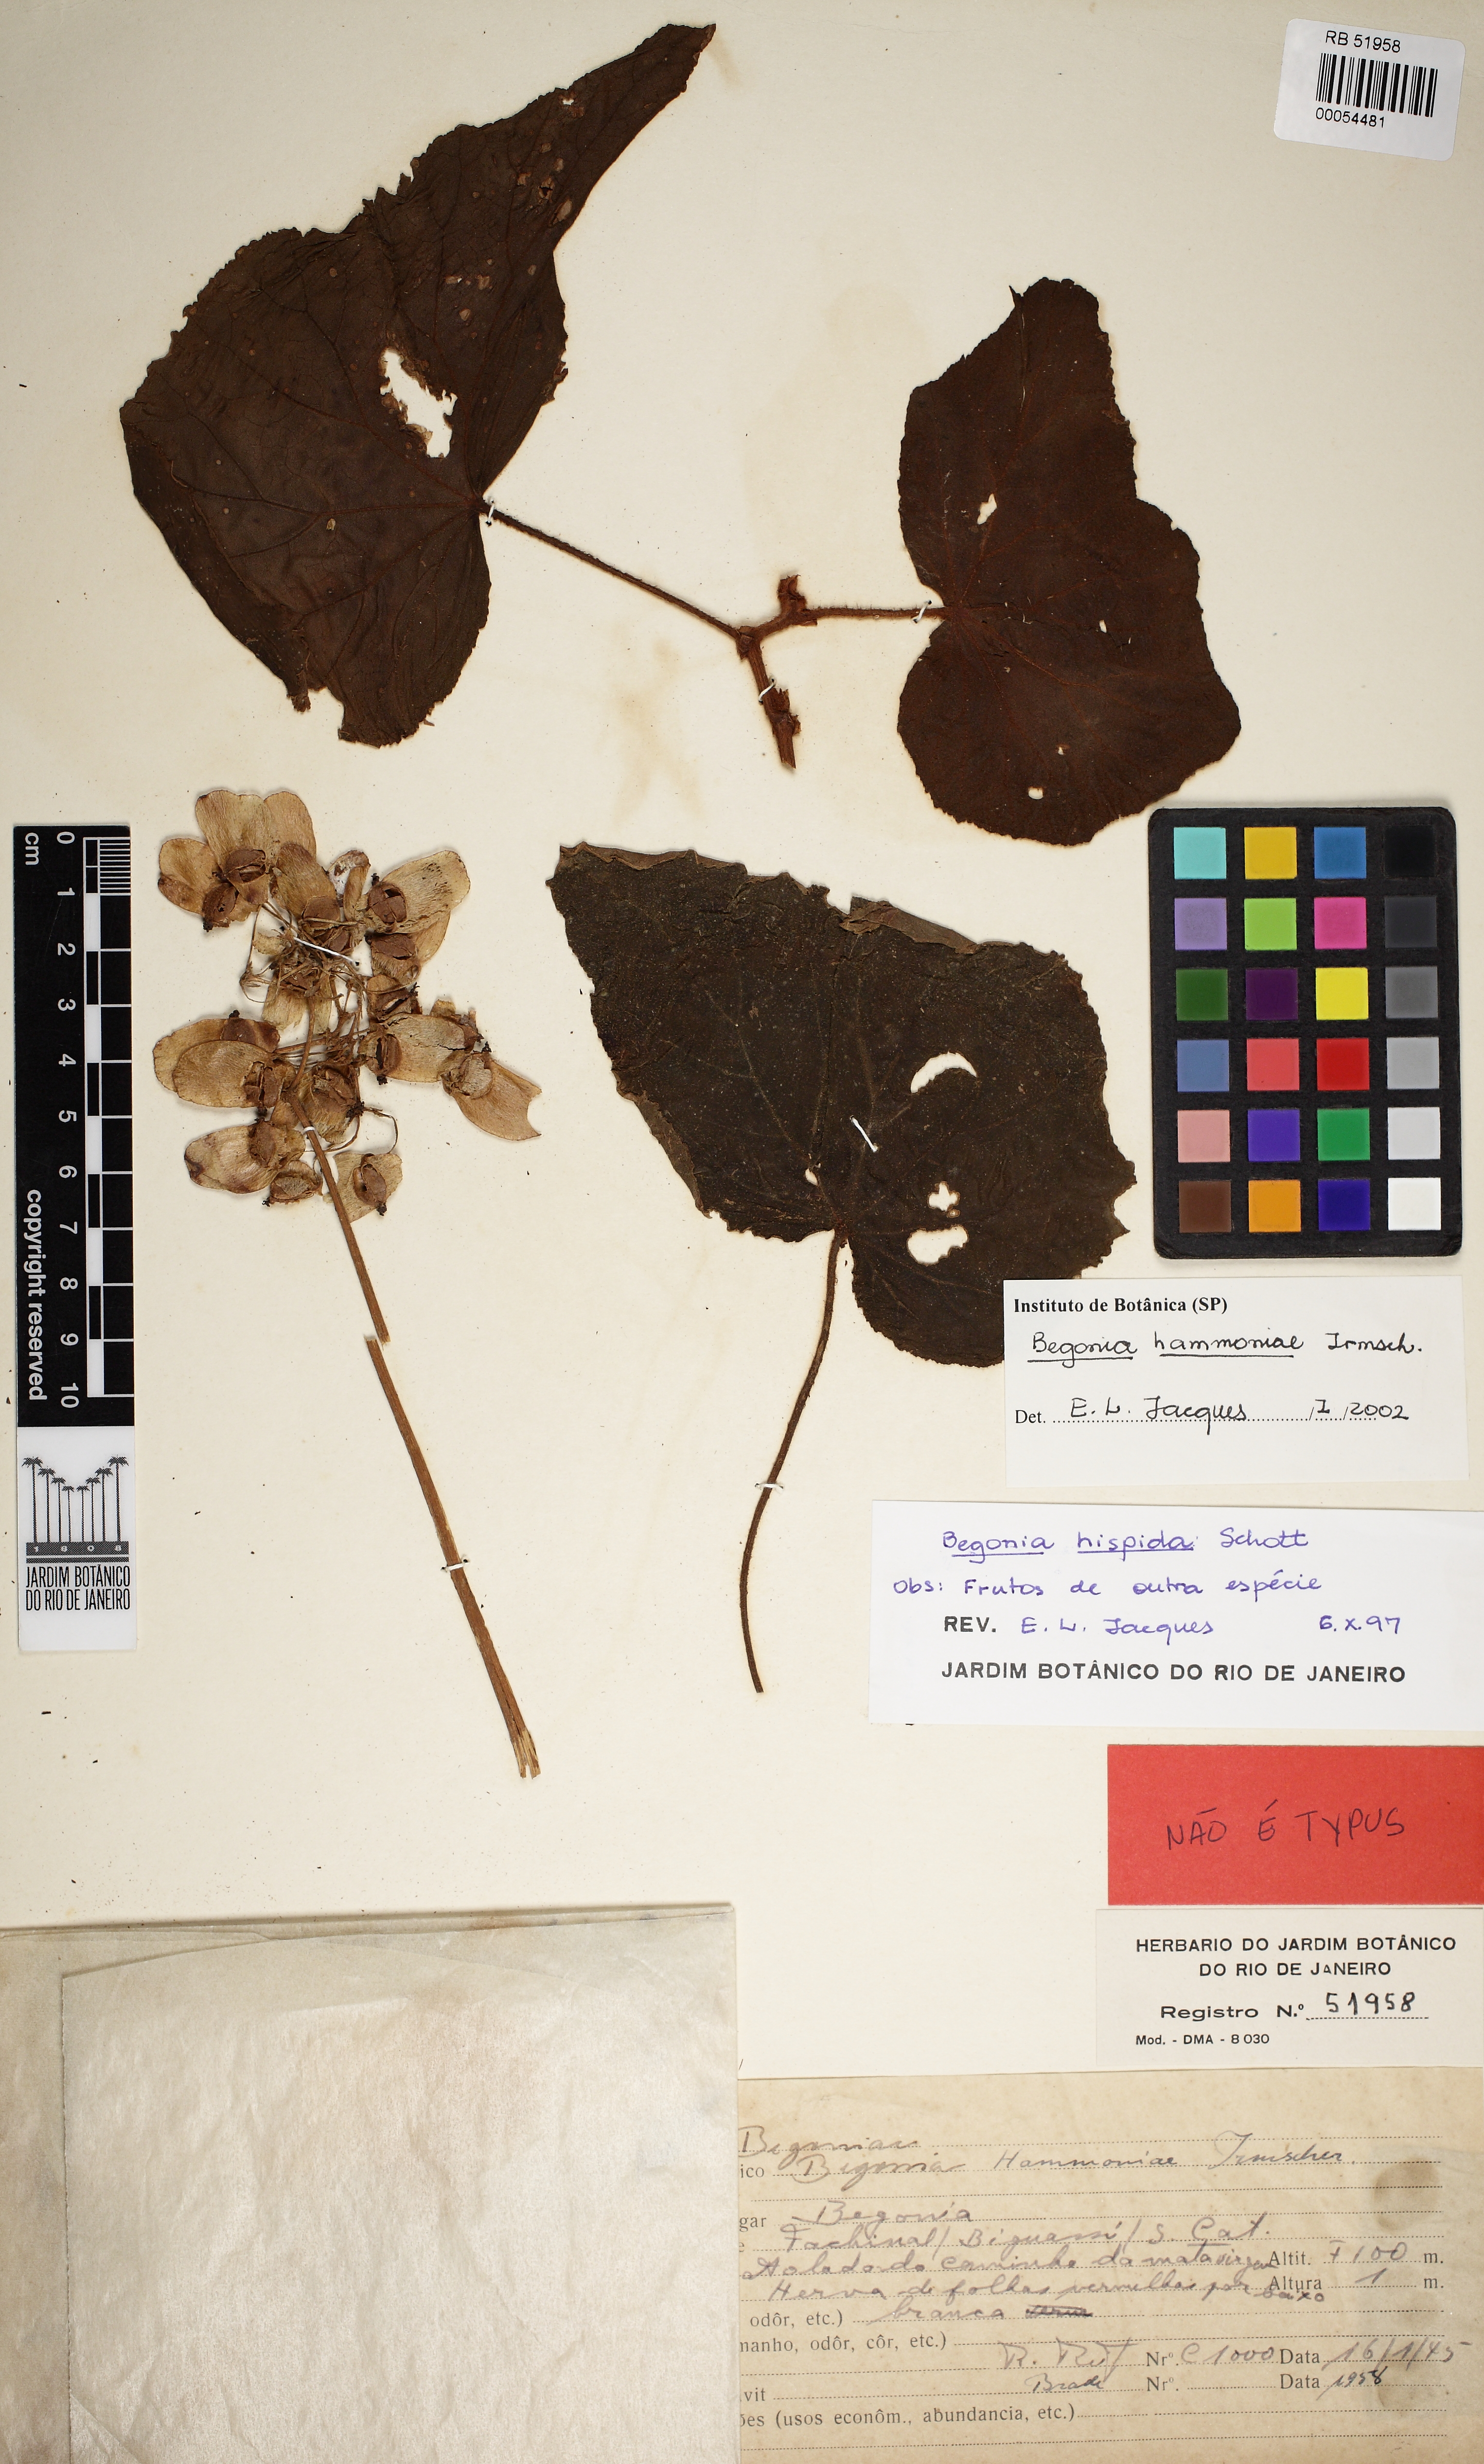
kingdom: Plantae
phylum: Tracheophyta
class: Magnoliopsida
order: Cucurbitales
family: Begoniaceae
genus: Begonia
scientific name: Begonia hammoniae
